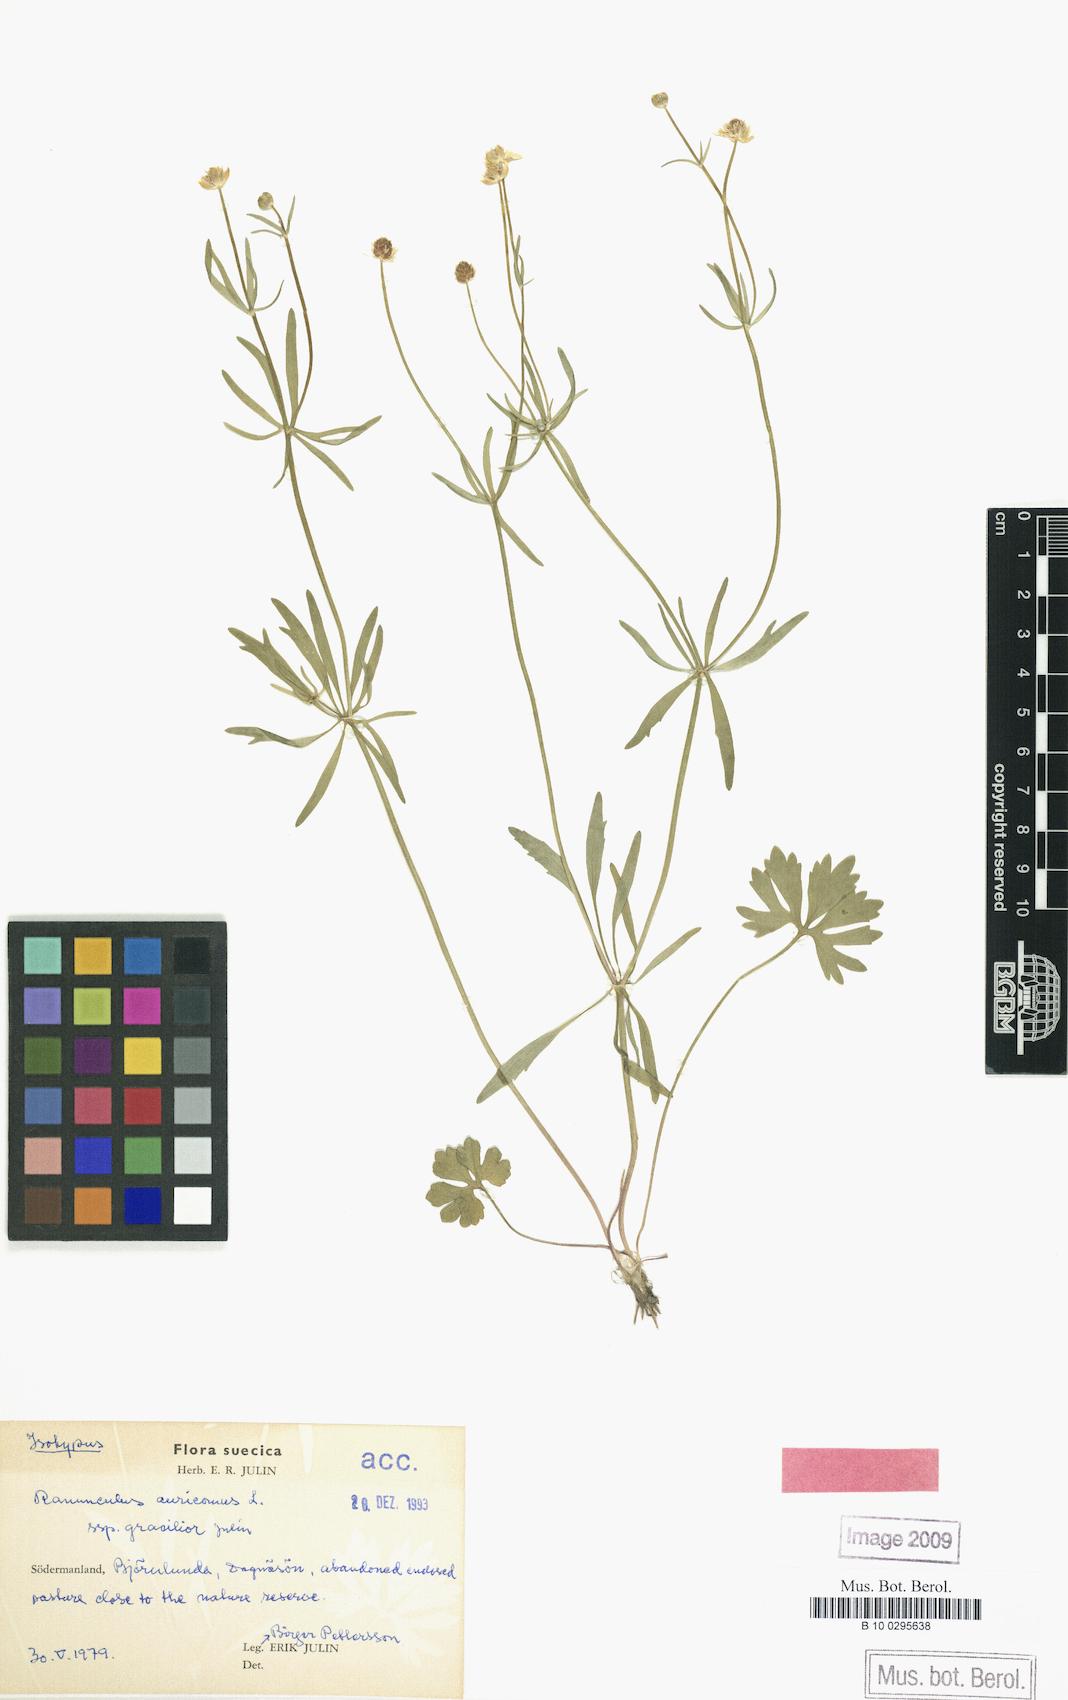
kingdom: Plantae
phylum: Tracheophyta
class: Magnoliopsida
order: Ranunculales
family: Ranunculaceae
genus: Ranunculus
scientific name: Ranunculus gracilior
